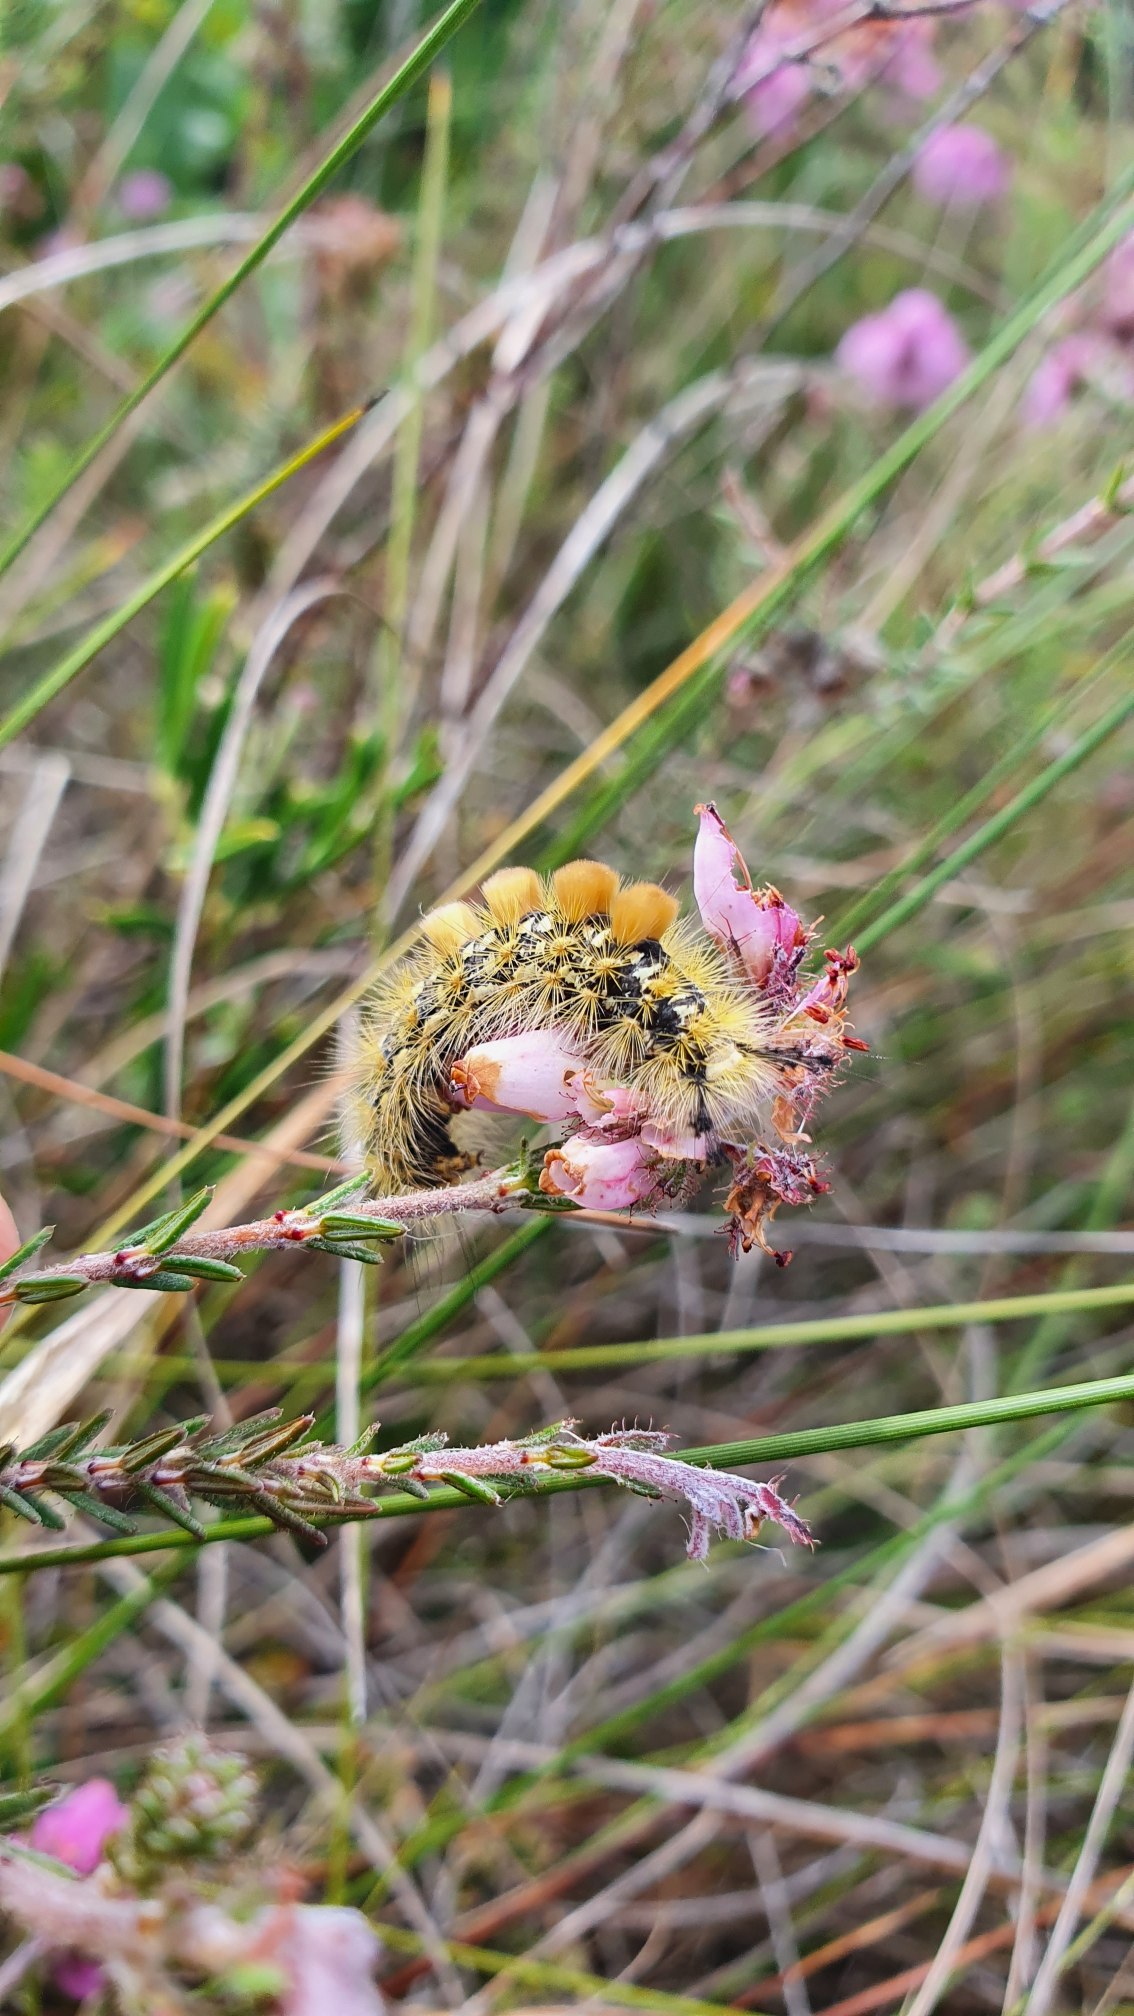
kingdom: Animalia
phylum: Arthropoda
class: Insecta
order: Lepidoptera
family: Erebidae
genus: Orgyia
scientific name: Orgyia antiquoides
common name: Lyngpenselspinder
